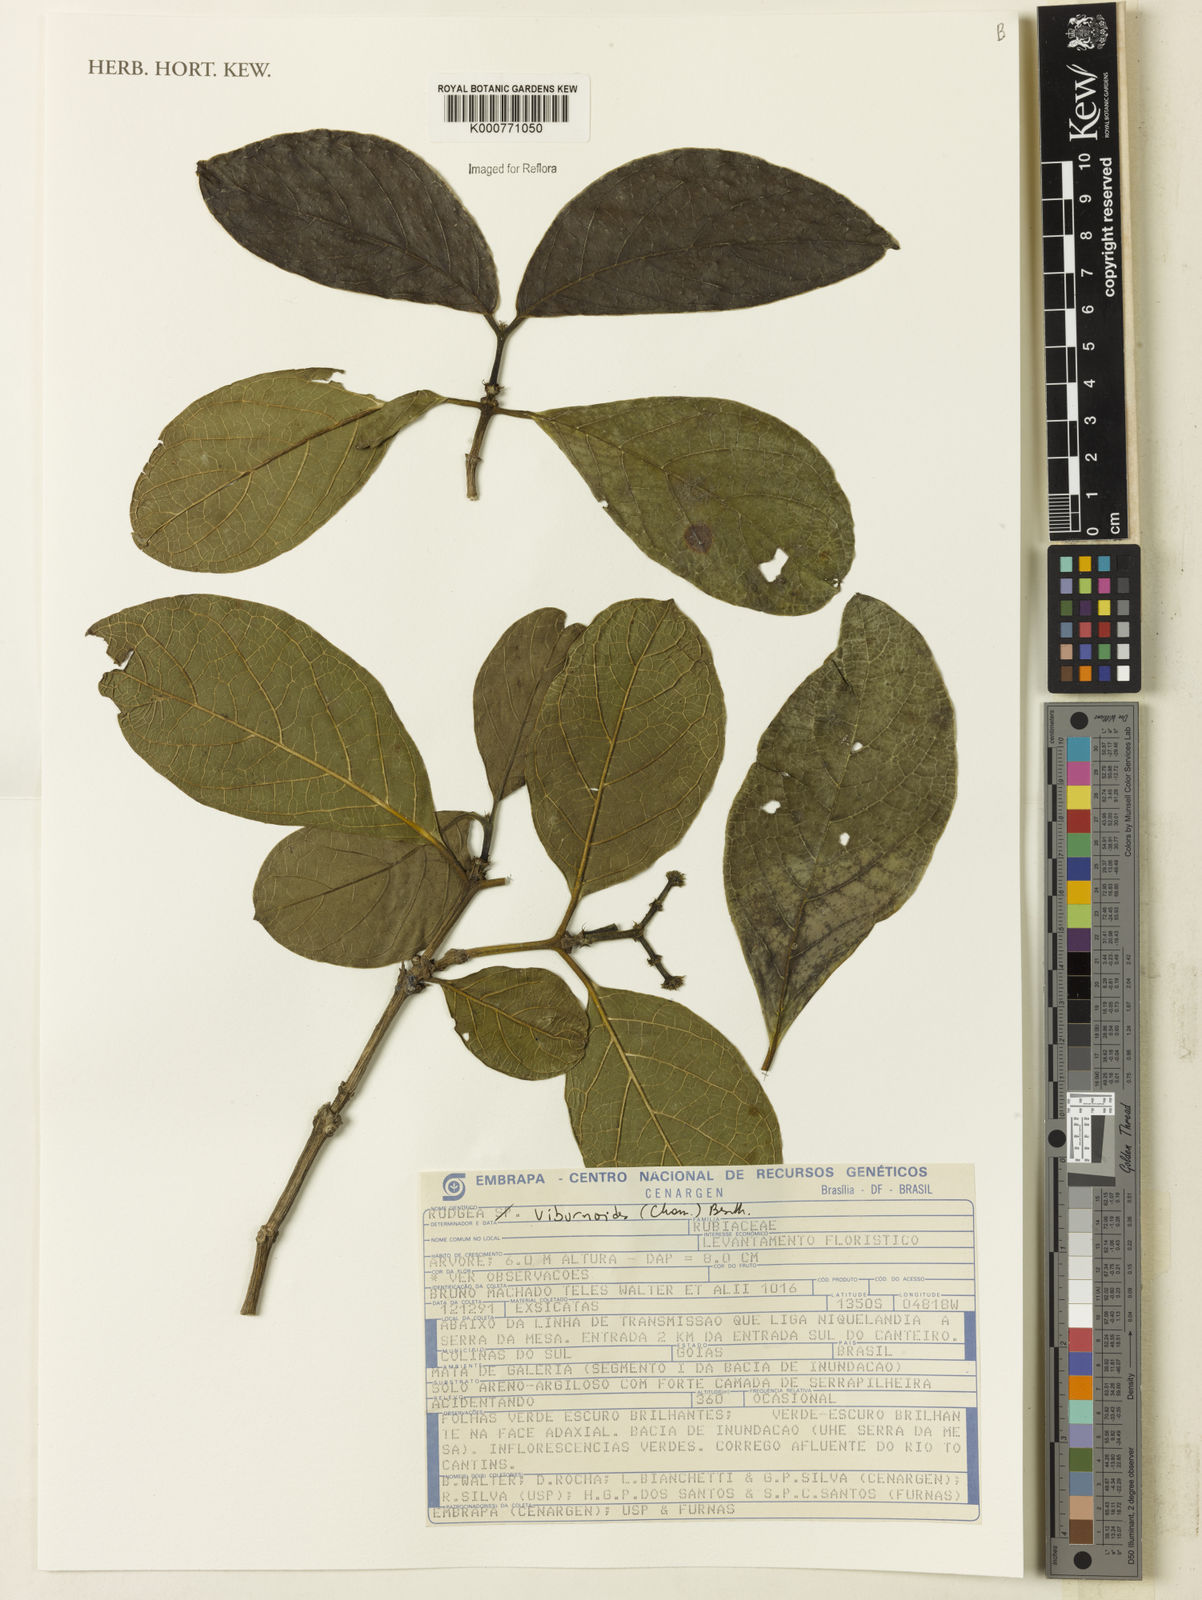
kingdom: Plantae
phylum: Tracheophyta
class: Magnoliopsida
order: Gentianales
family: Rubiaceae
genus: Rudgea
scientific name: Rudgea viburnoides
